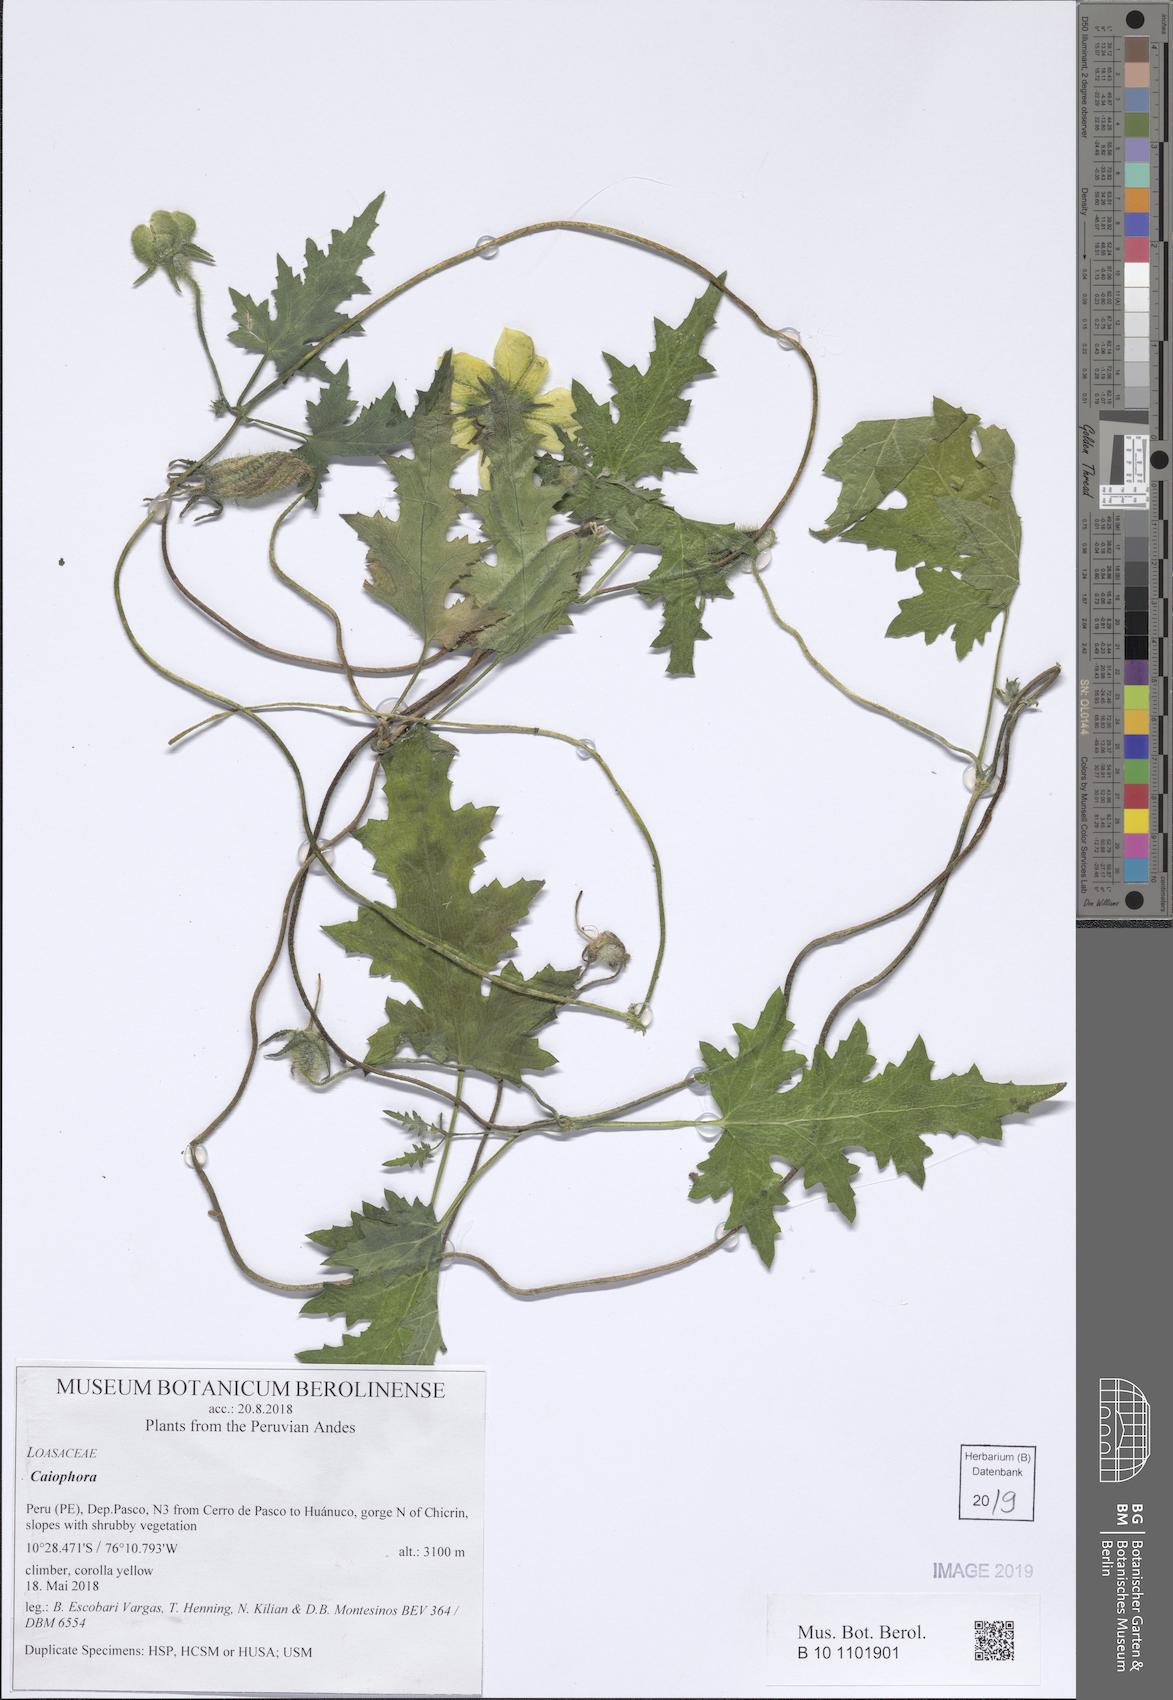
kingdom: Plantae
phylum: Tracheophyta
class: Magnoliopsida
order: Cornales
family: Loasaceae
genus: Caiophora
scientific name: Caiophora cirsiifolia
